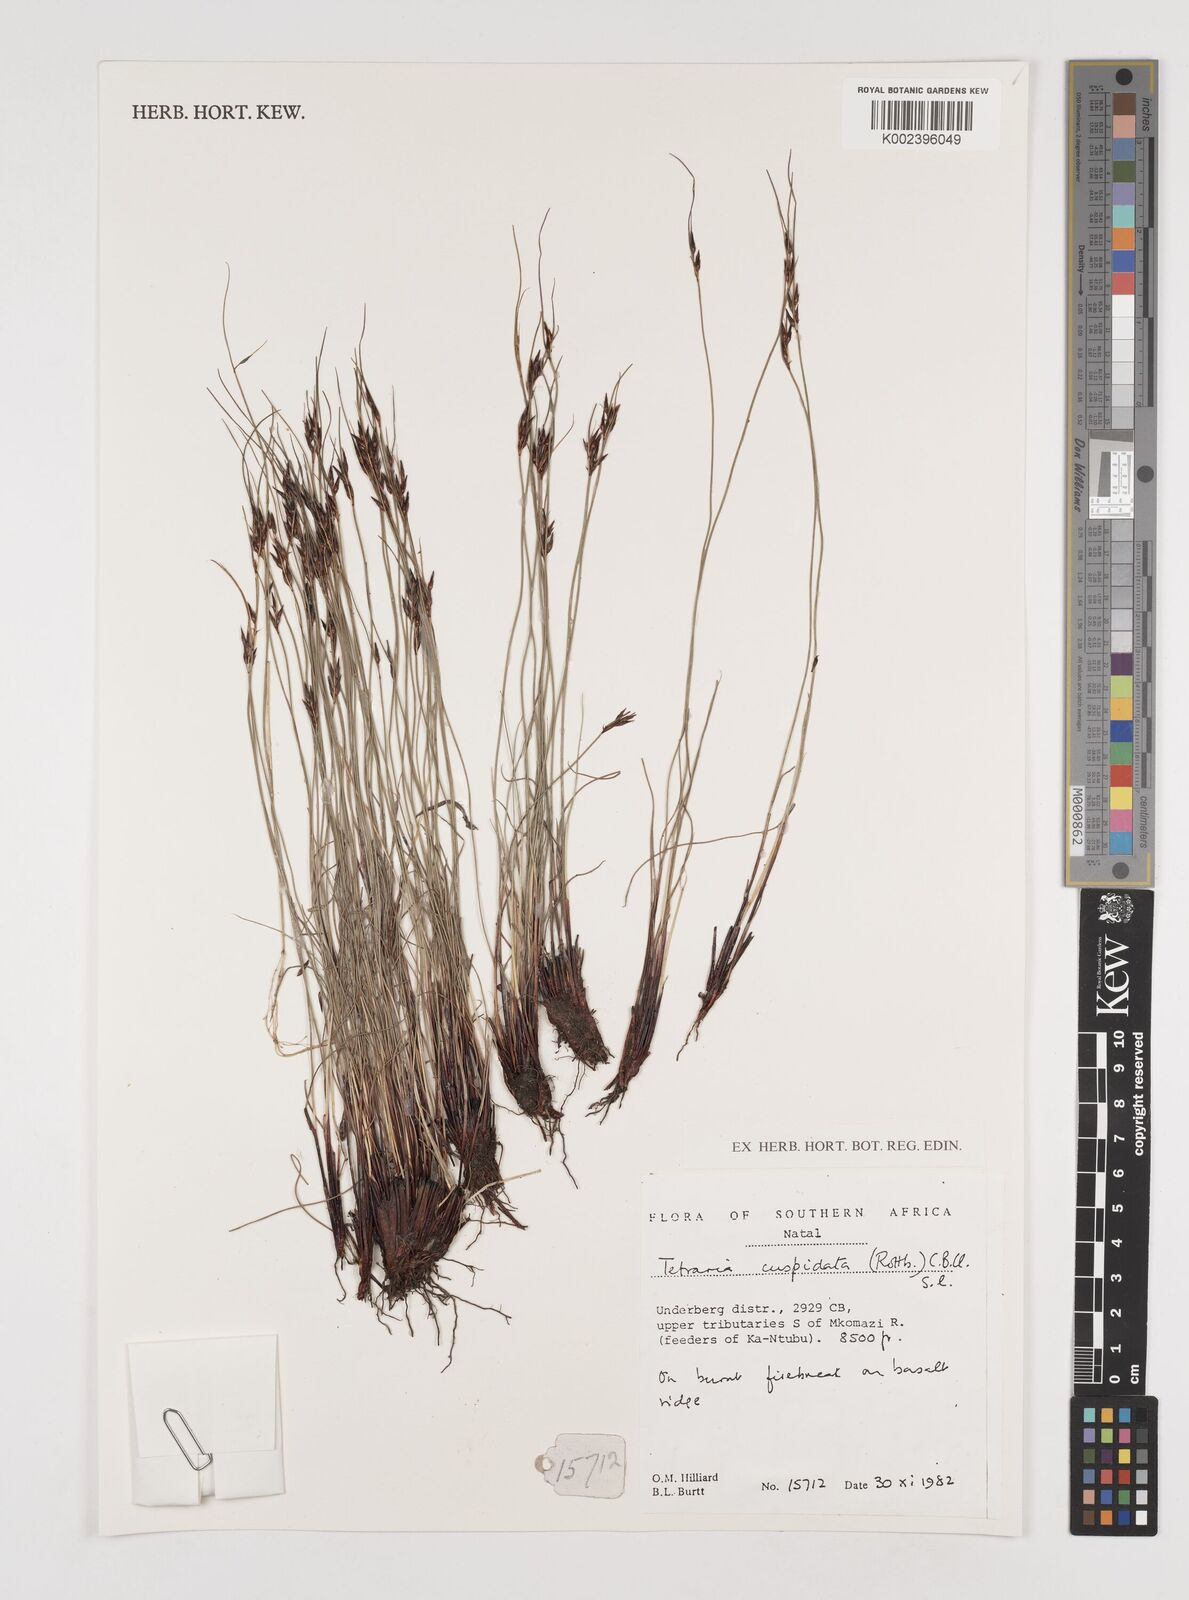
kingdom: Plantae
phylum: Tracheophyta
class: Liliopsida
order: Poales
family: Cyperaceae
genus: Schoenus
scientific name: Schoenus cuspidatus
